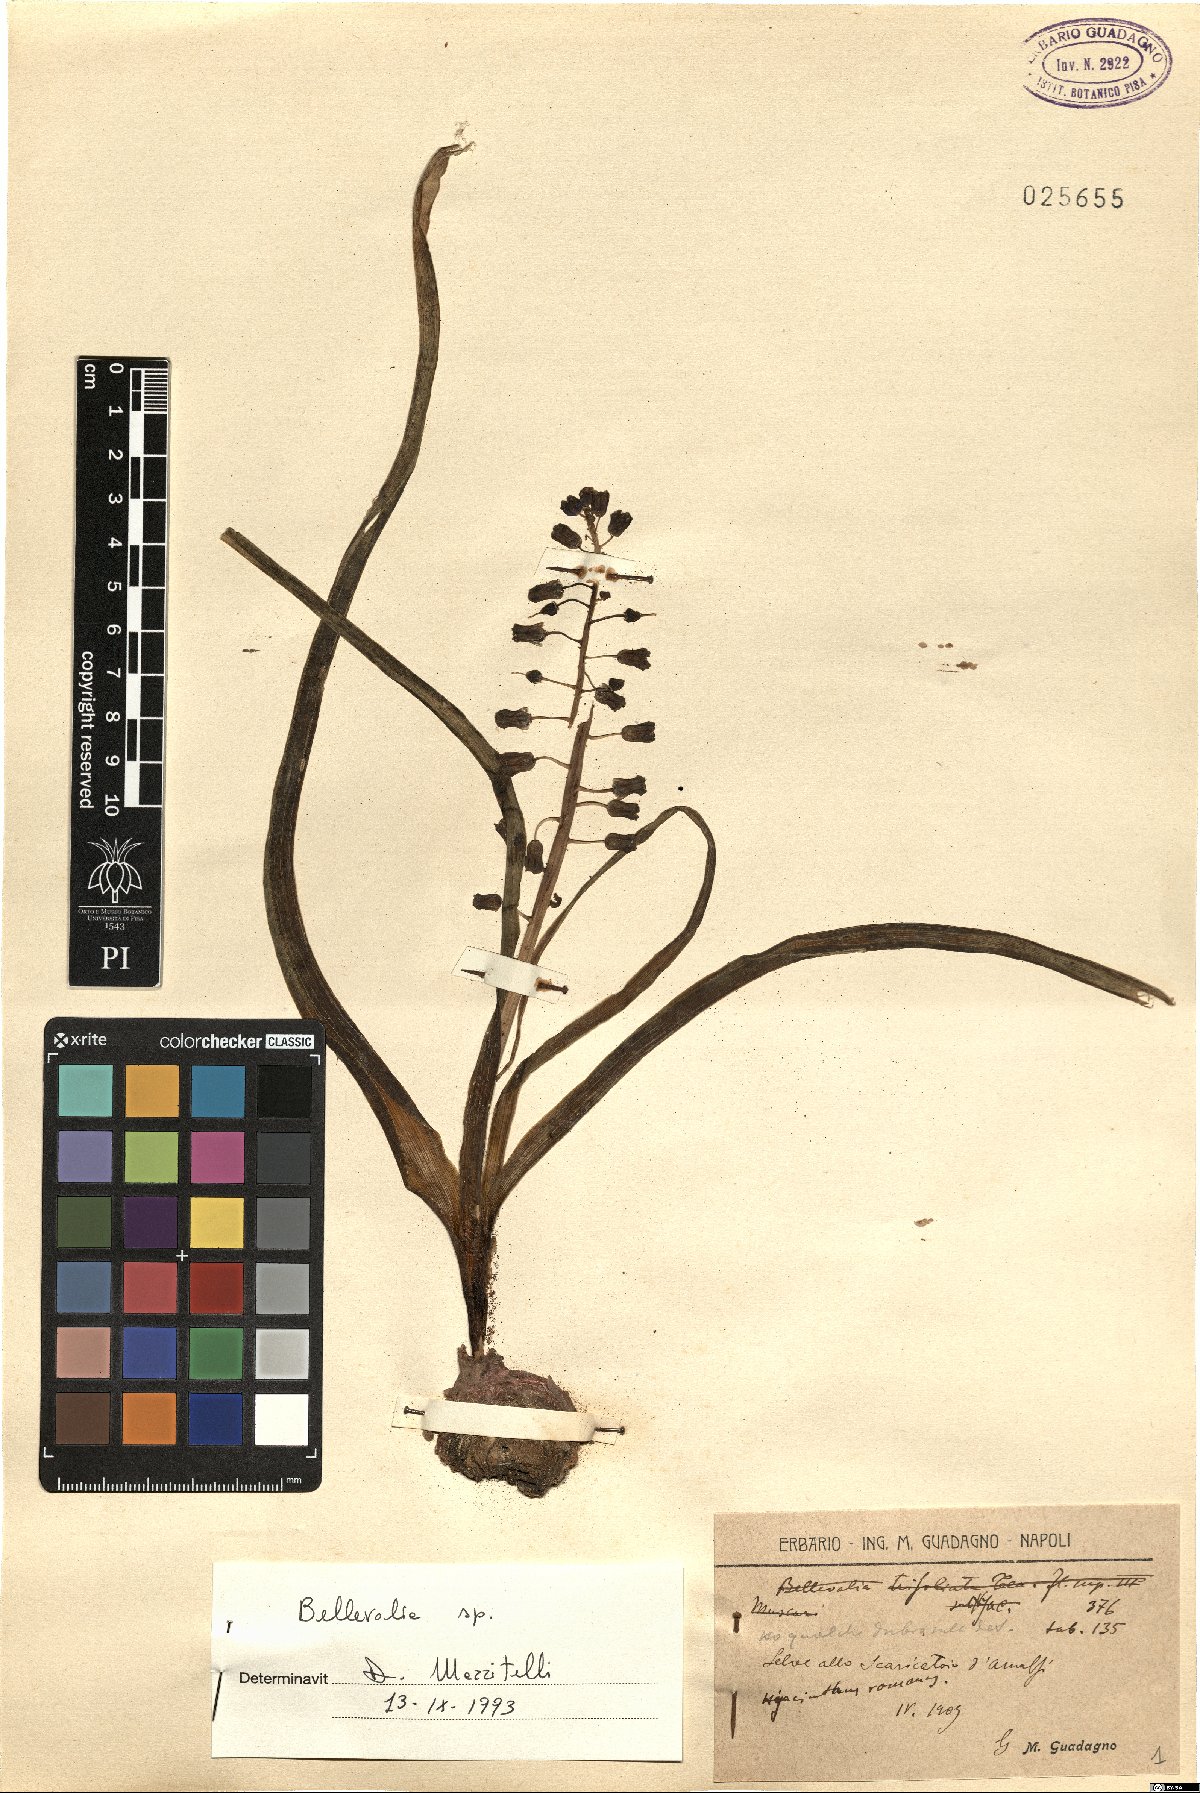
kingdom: Plantae
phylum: Tracheophyta
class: Liliopsida
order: Asparagales
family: Asparagaceae
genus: Bellevalia
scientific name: Bellevalia
